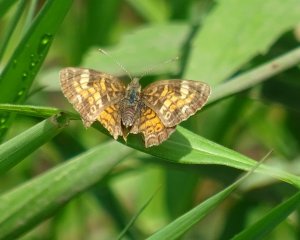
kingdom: Animalia
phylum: Arthropoda
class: Insecta
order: Lepidoptera
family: Nymphalidae
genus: Phyciodes
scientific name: Phyciodes
